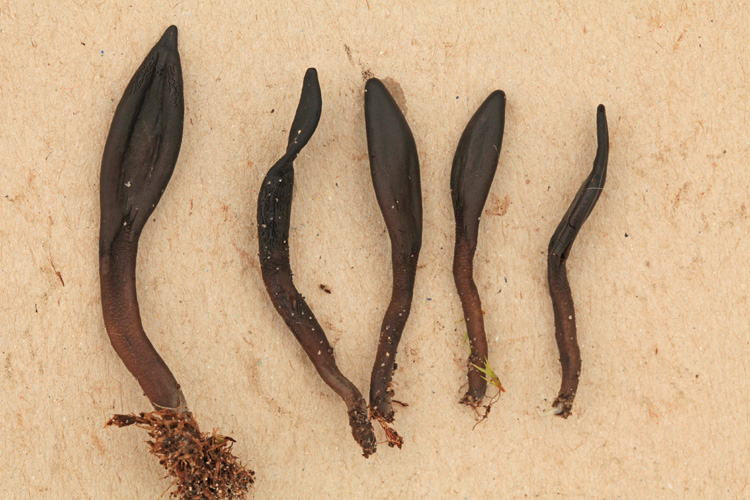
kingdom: Fungi
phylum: Ascomycota
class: Geoglossomycetes
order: Geoglossales
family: Geoglossaceae
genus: Hemileucoglossum
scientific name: Hemileucoglossum elongatum
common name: småsporet jordtunge
